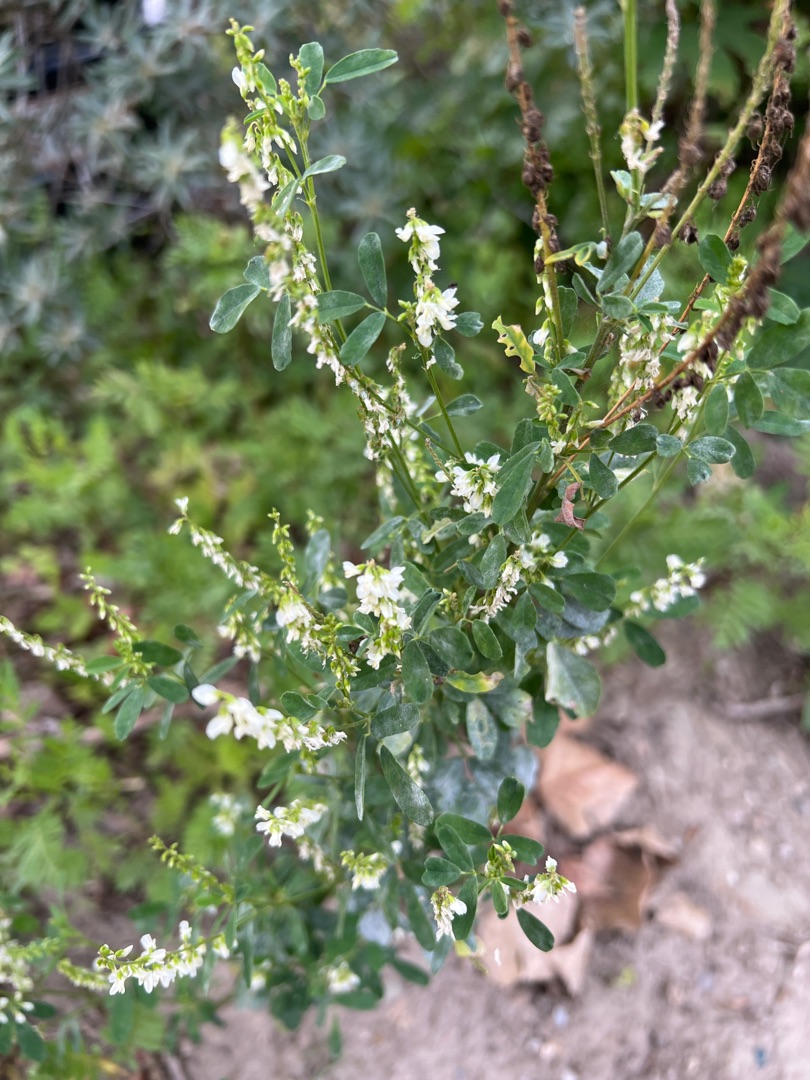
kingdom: Plantae
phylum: Tracheophyta
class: Magnoliopsida
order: Fabales
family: Fabaceae
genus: Melilotus
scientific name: Melilotus albus
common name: Hvid stenkløver
